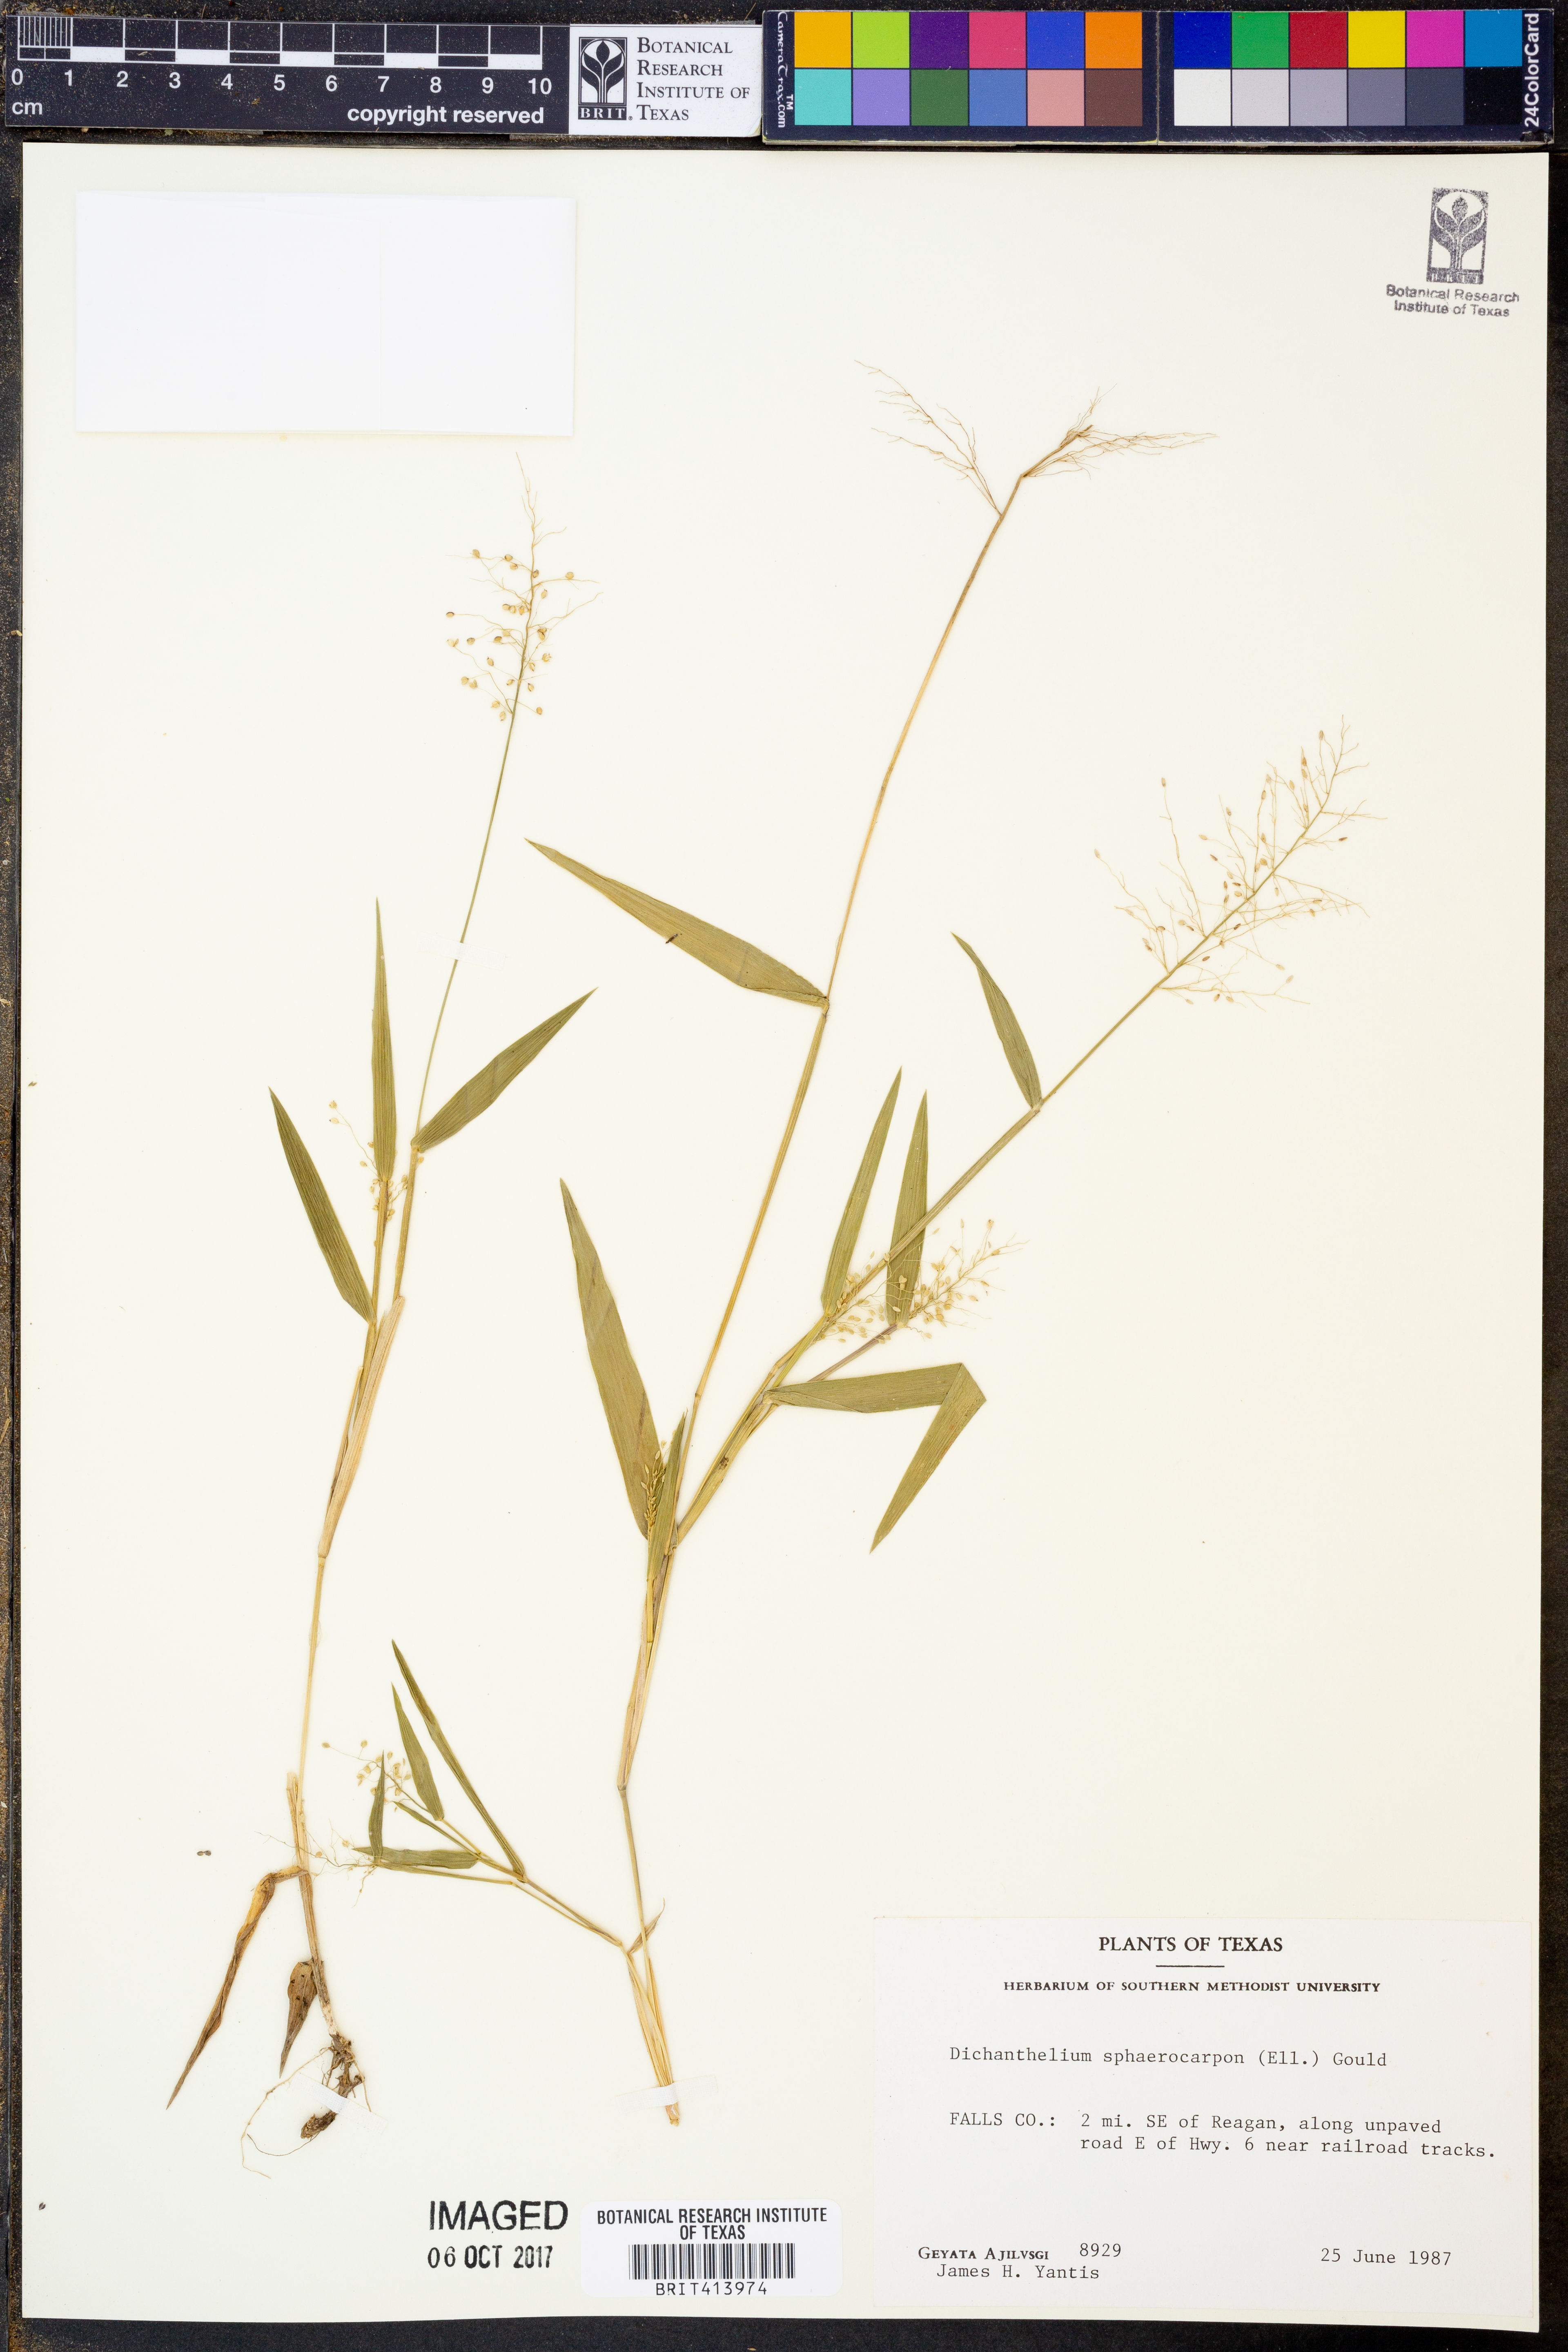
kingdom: Plantae
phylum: Tracheophyta
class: Liliopsida
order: Poales
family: Poaceae
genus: Dichanthelium
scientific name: Dichanthelium sphaerocarpon
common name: Round-fruited panicgrass
